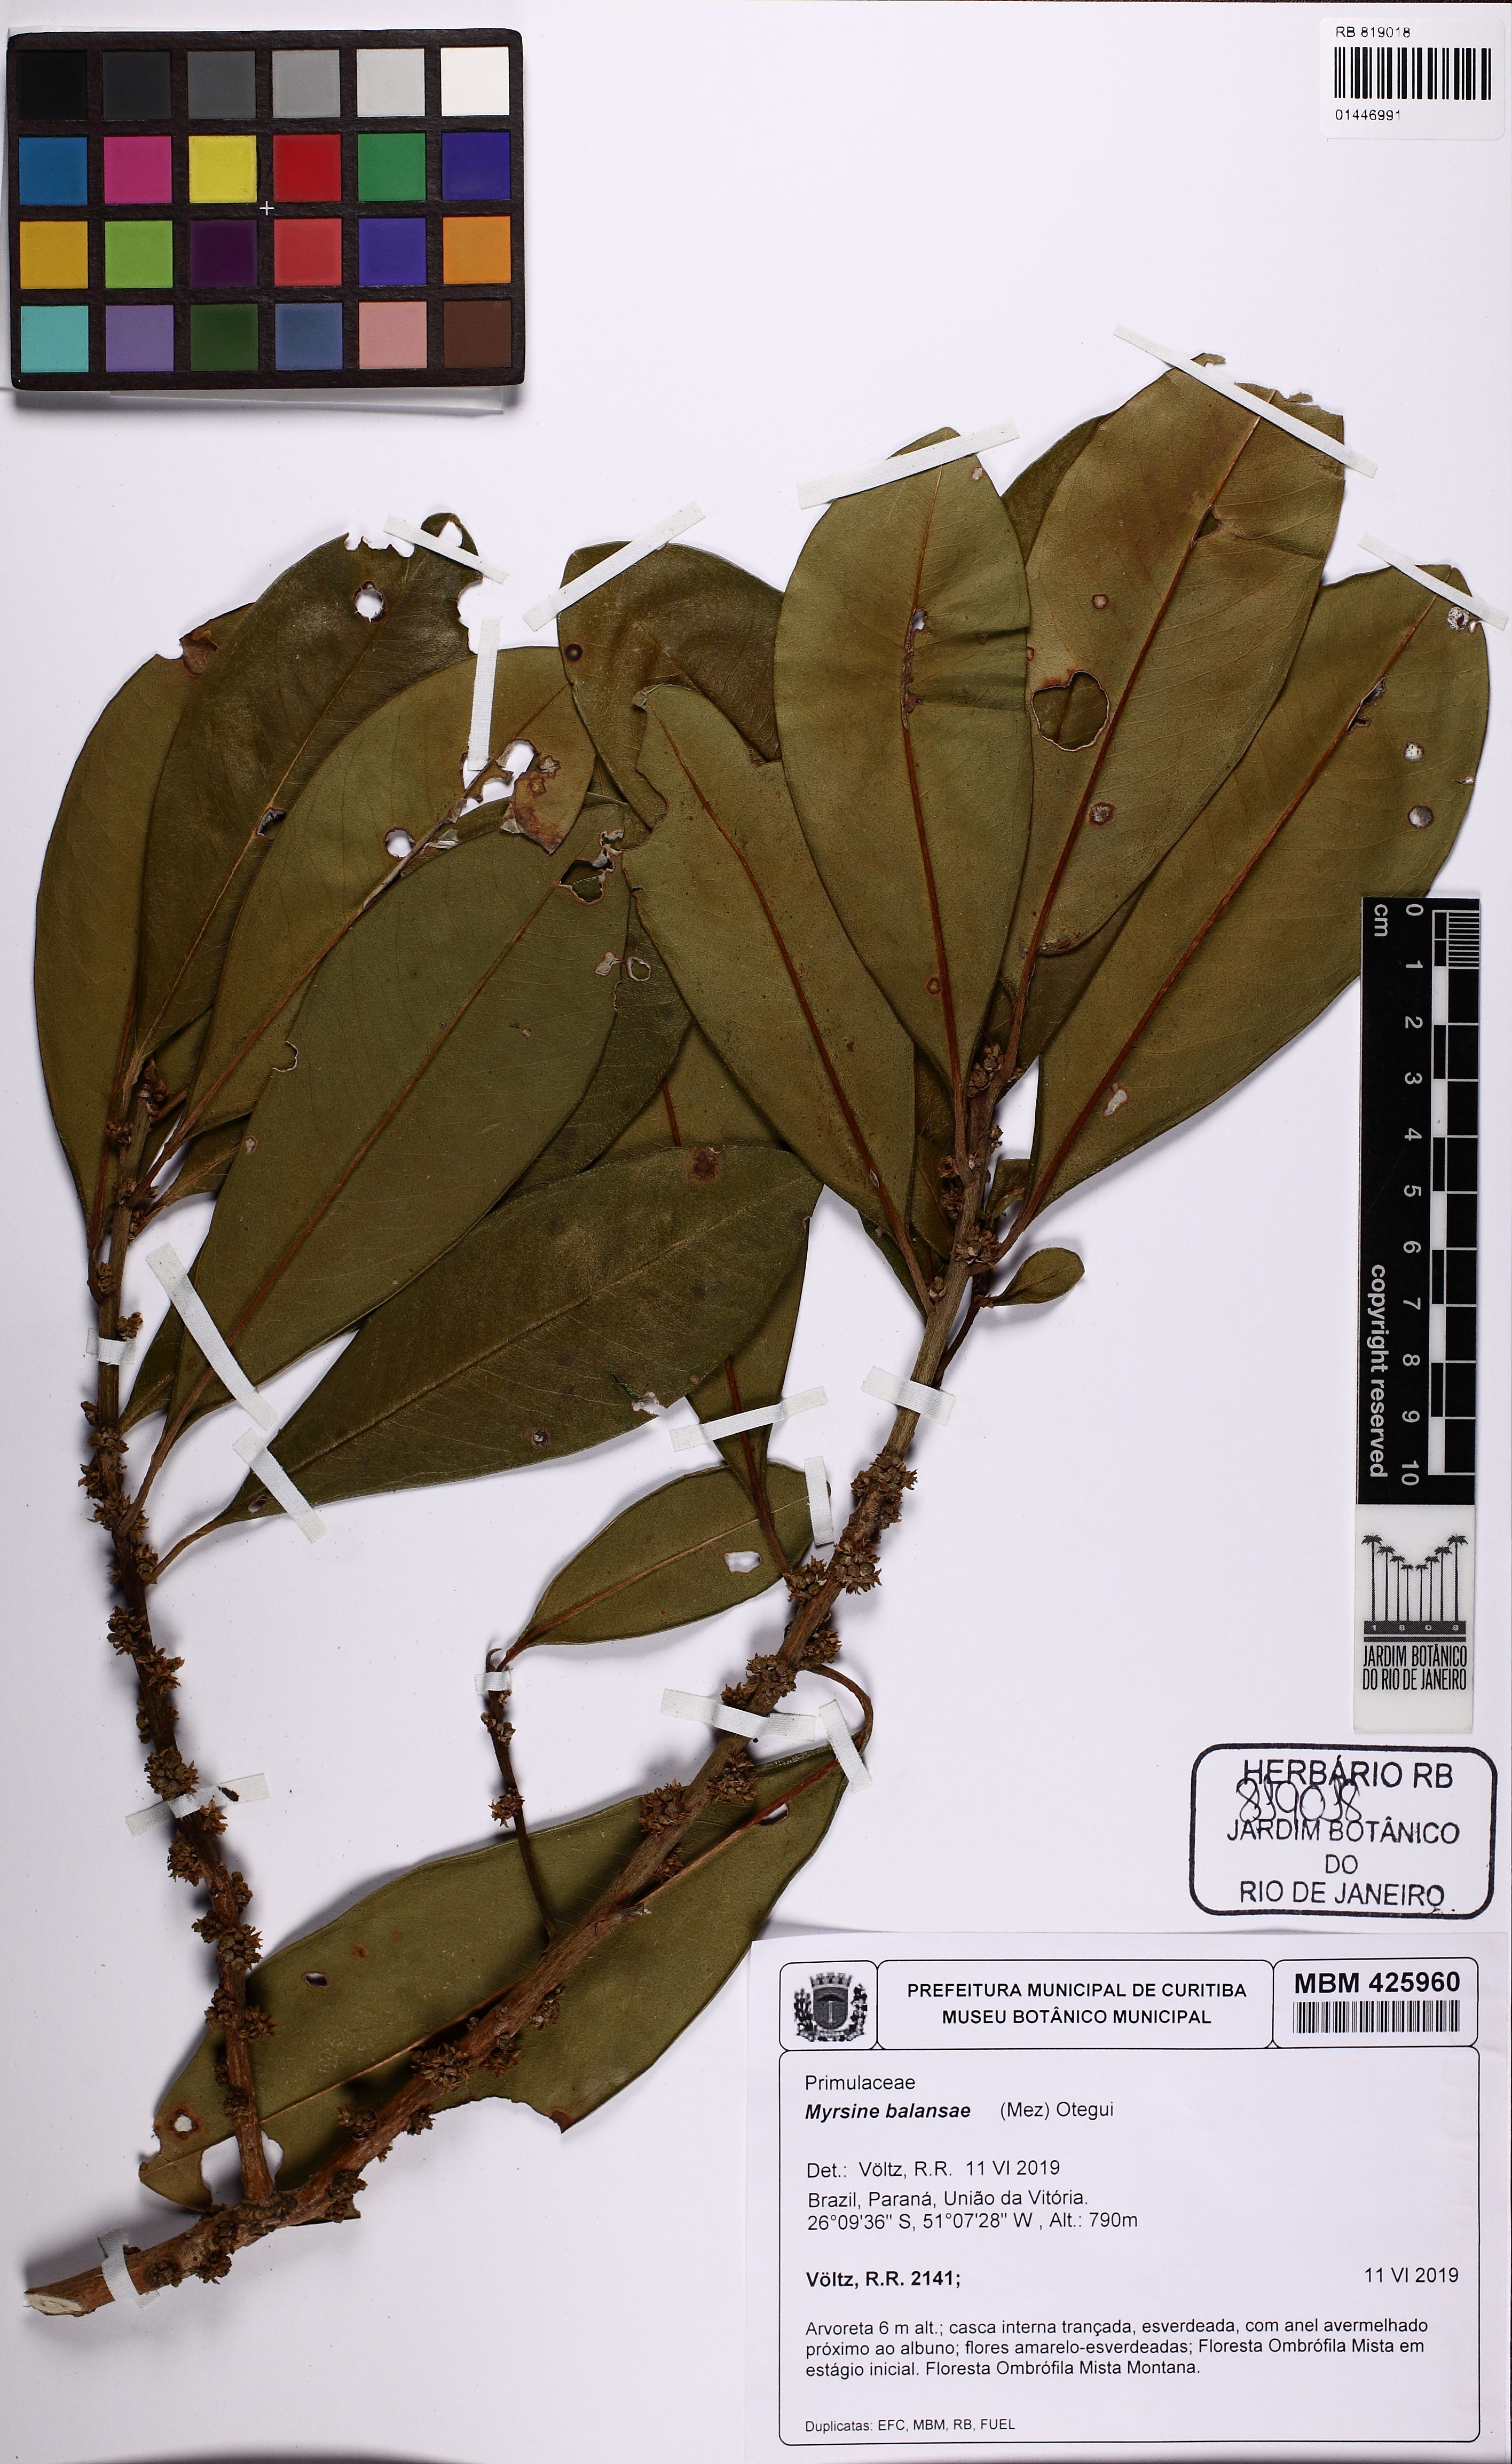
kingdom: Plantae
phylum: Tracheophyta
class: Magnoliopsida
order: Ericales
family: Primulaceae
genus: Myrsine
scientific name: Myrsine balansae
